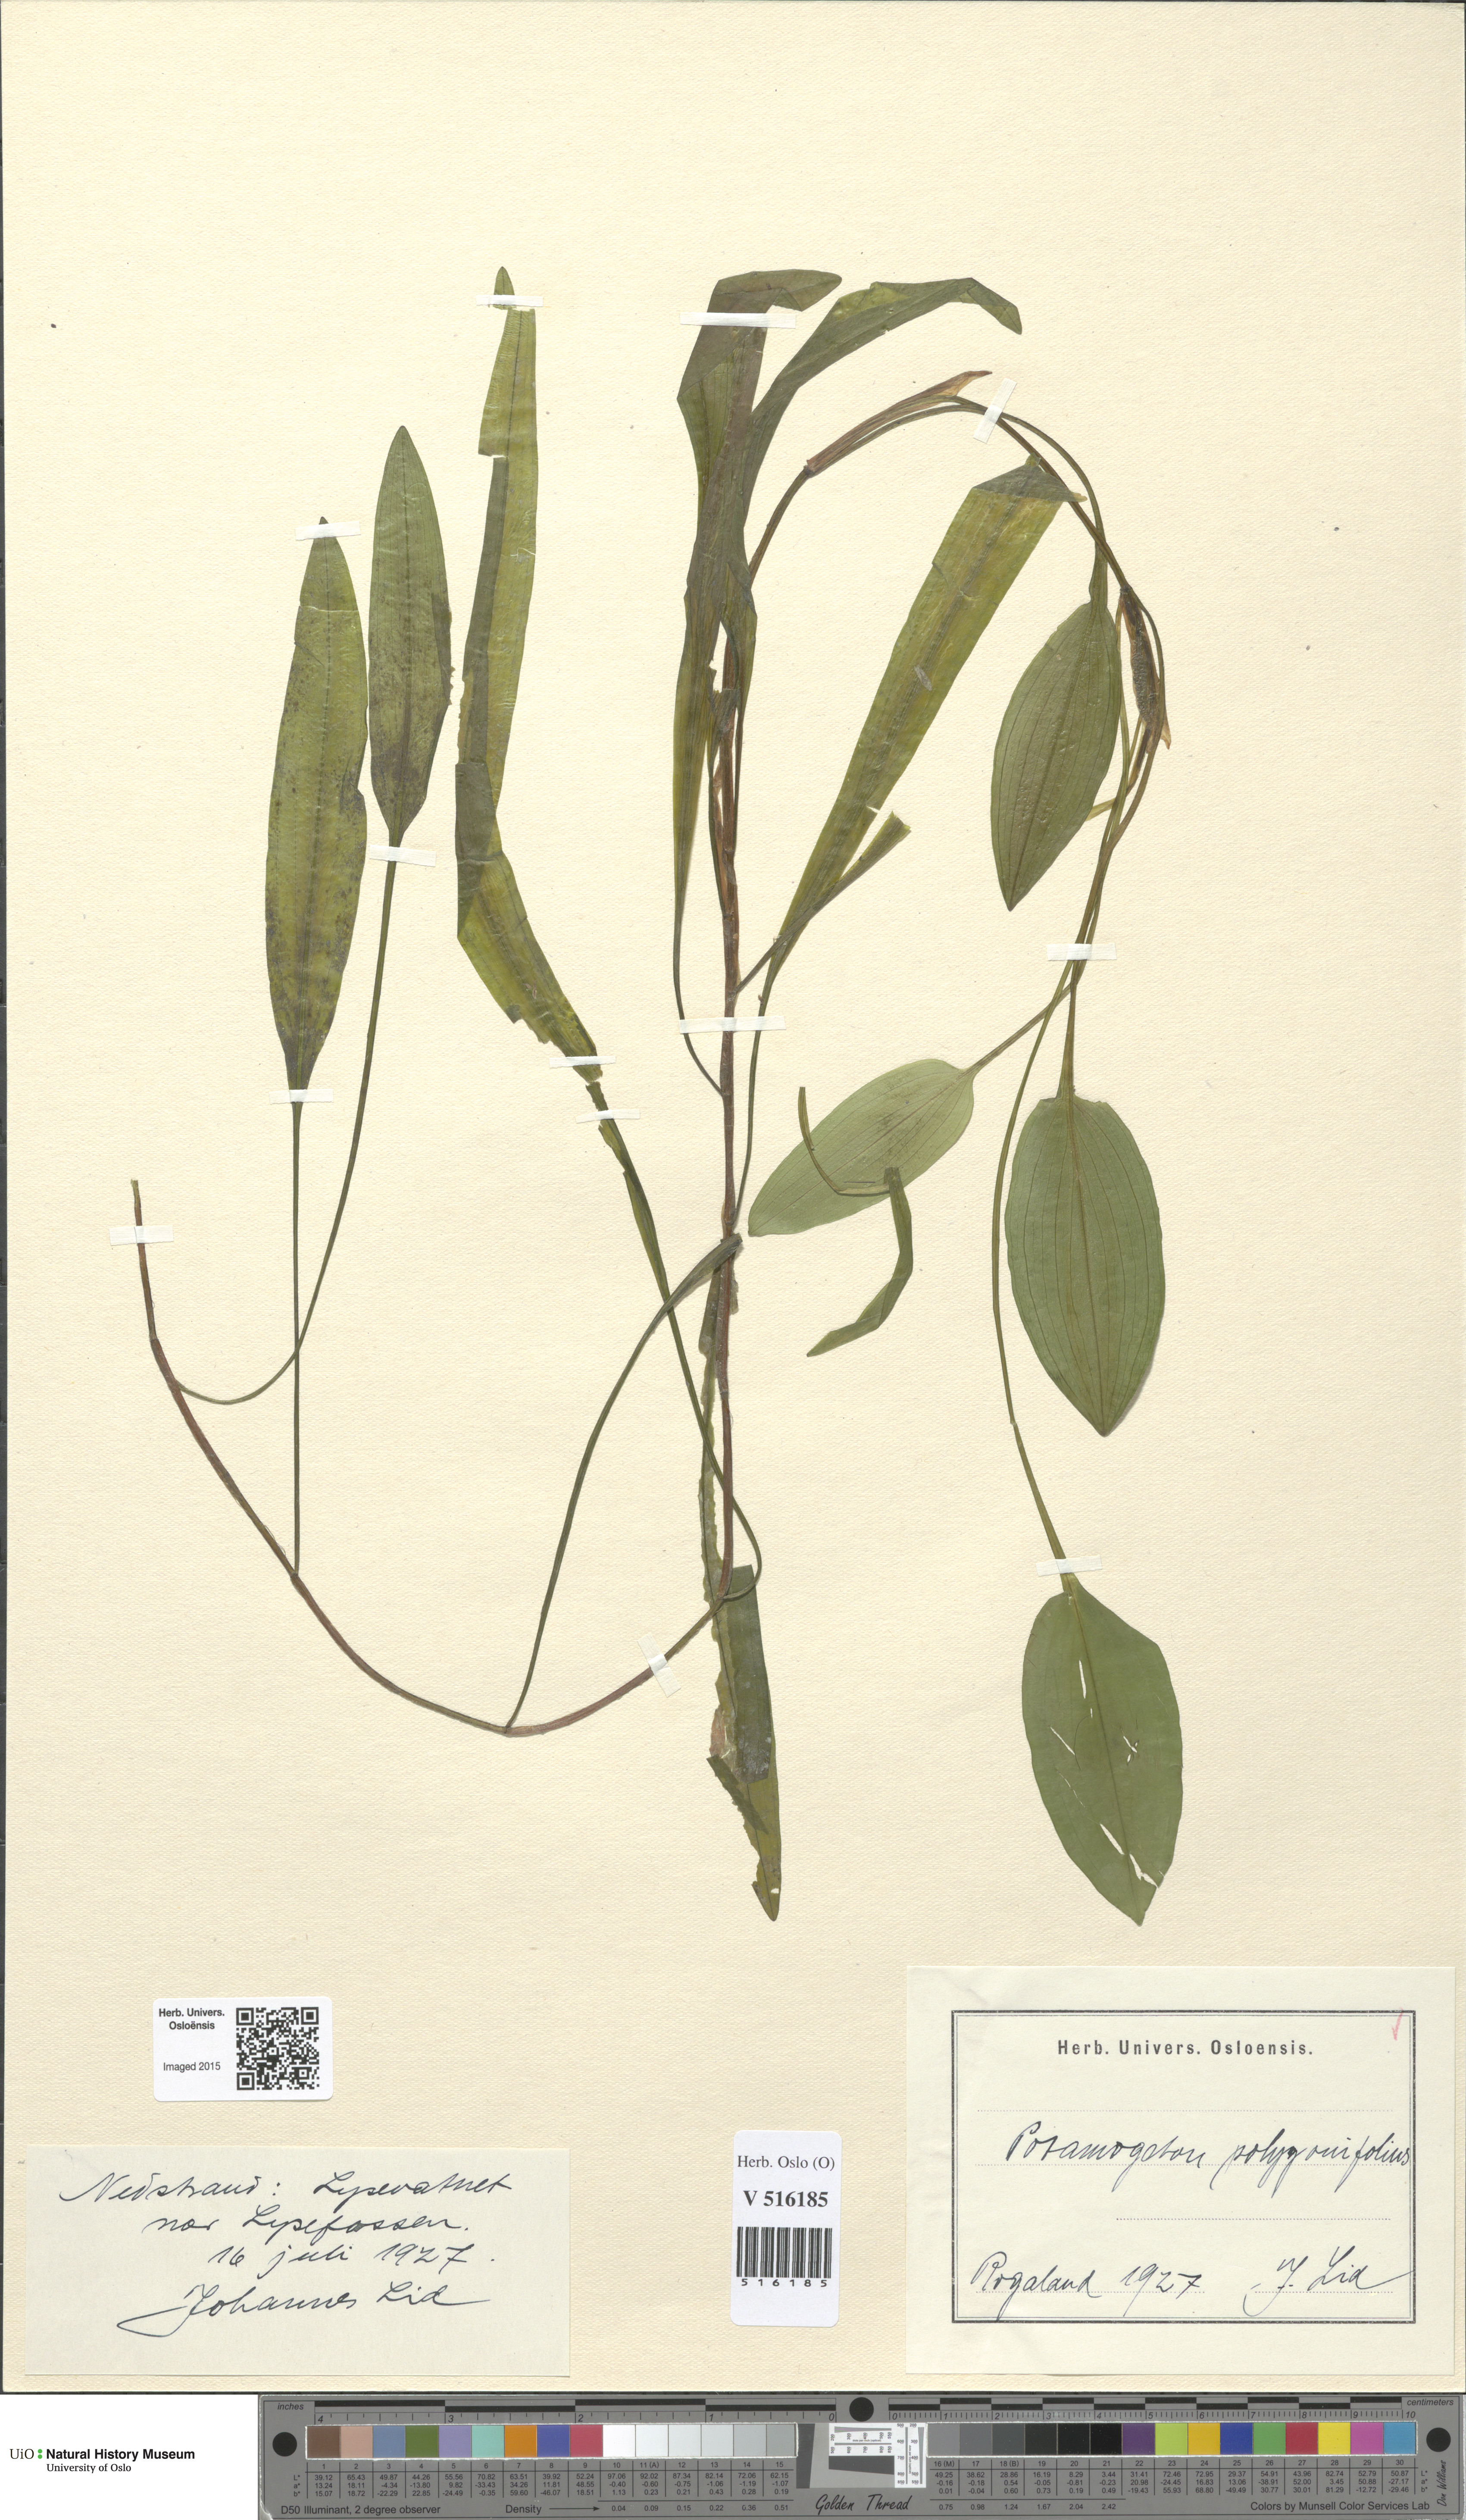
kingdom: Plantae
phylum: Tracheophyta
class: Liliopsida
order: Alismatales
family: Potamogetonaceae
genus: Potamogeton
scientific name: Potamogeton polygonifolius
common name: Bog pondweed
